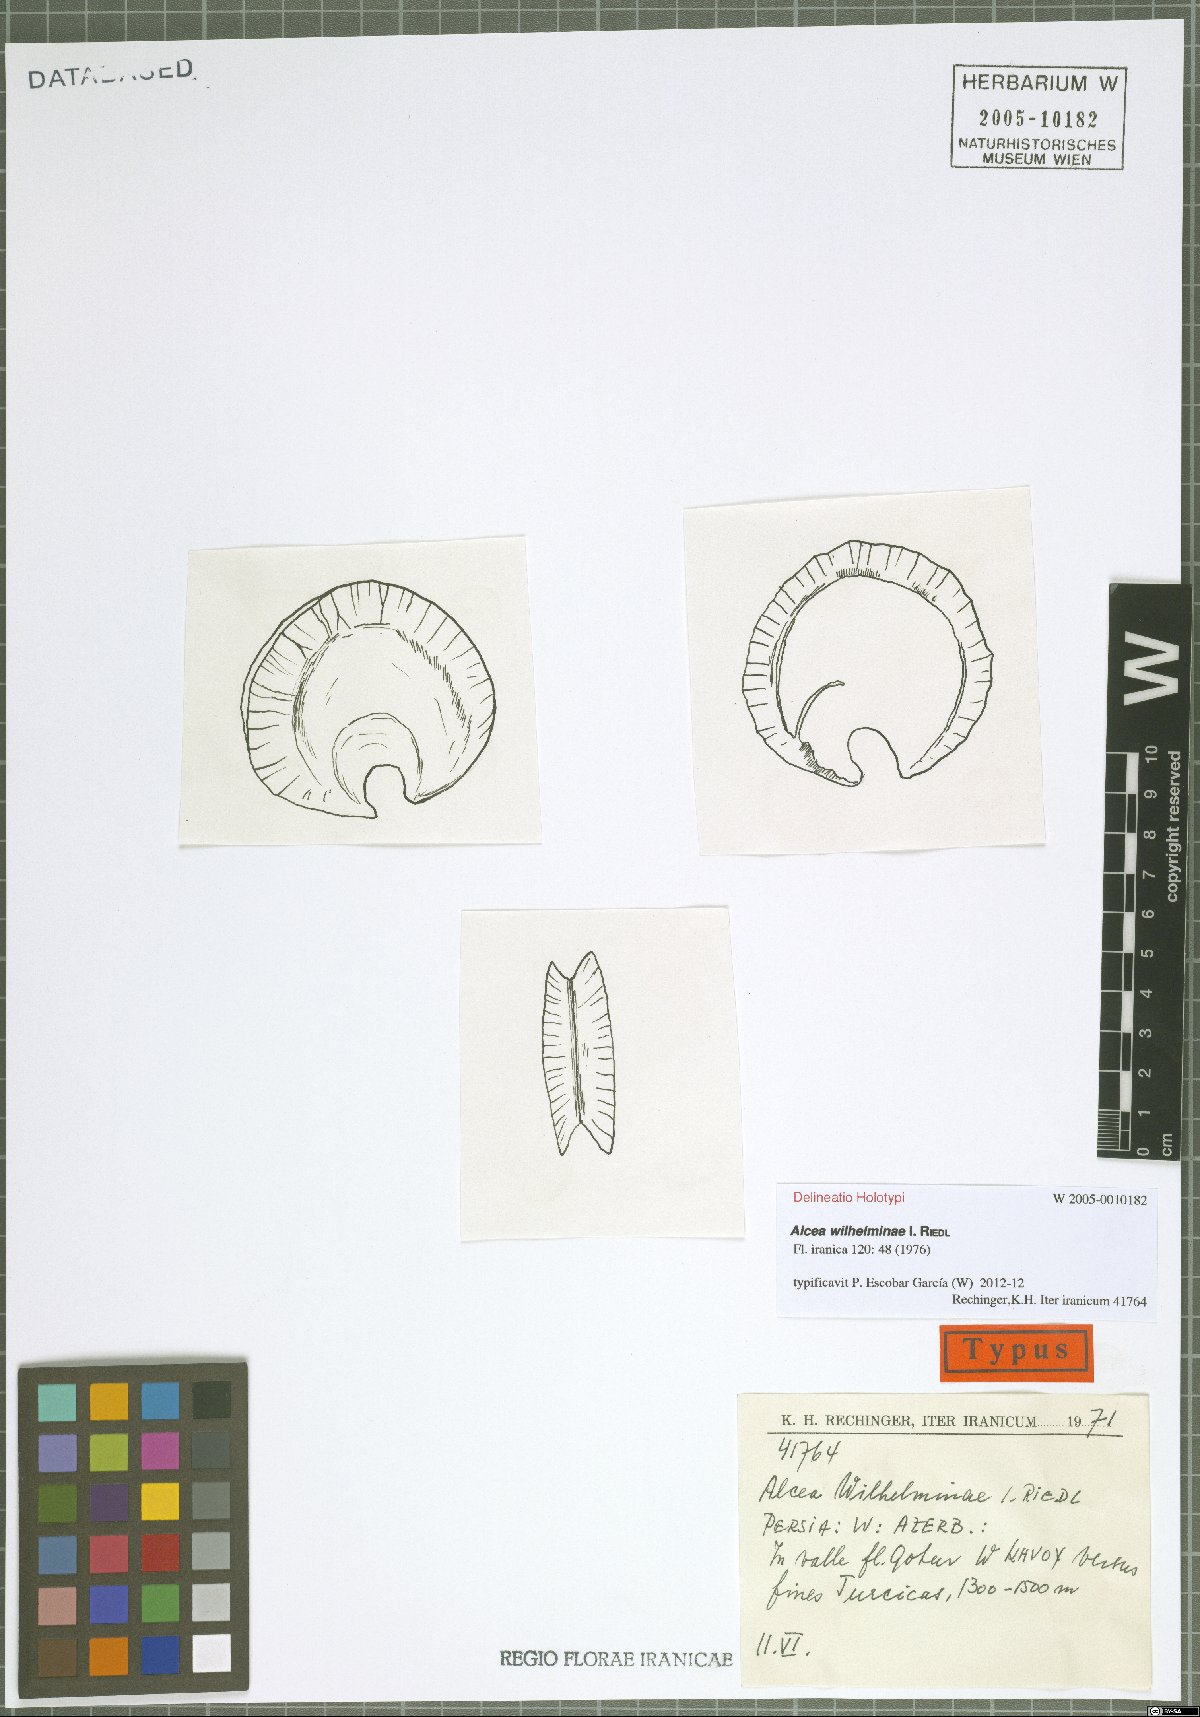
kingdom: Plantae
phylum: Tracheophyta
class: Magnoliopsida
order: Malvales
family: Malvaceae
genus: Alcea
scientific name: Alcea wilhelminae
